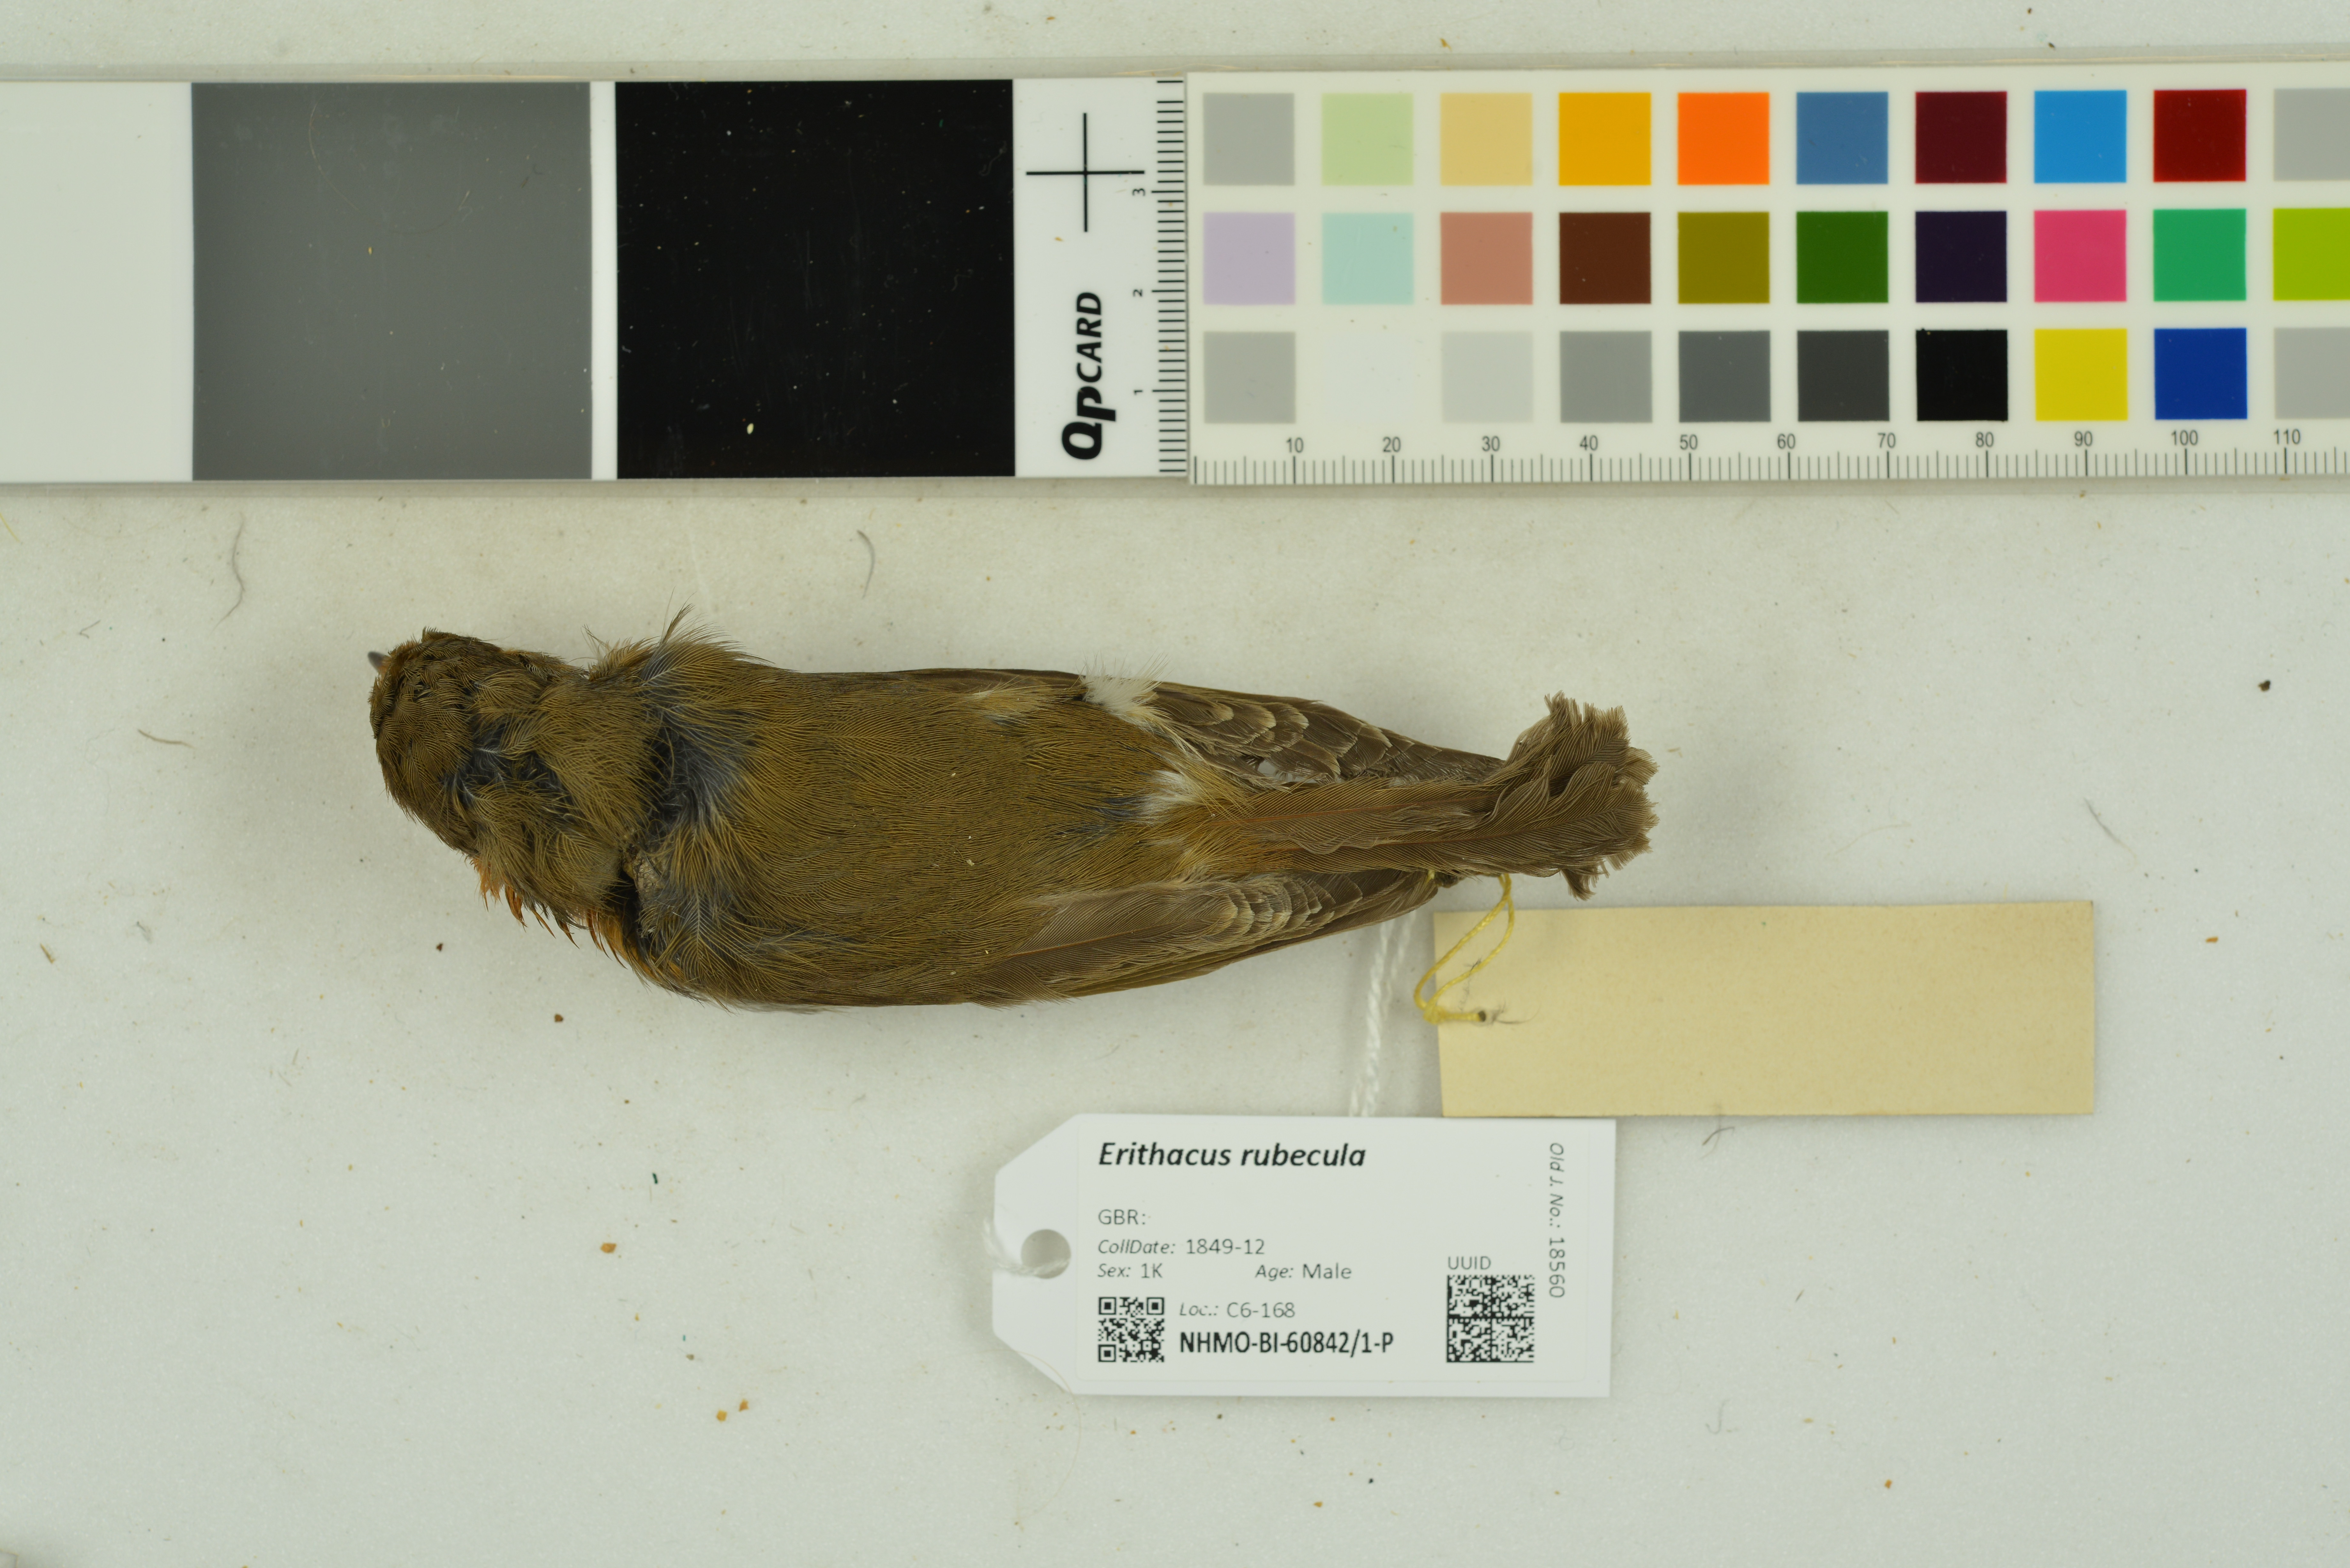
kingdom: Animalia
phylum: Chordata
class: Aves
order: Passeriformes
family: Muscicapidae
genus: Erithacus
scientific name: Erithacus rubecula
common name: European robin
